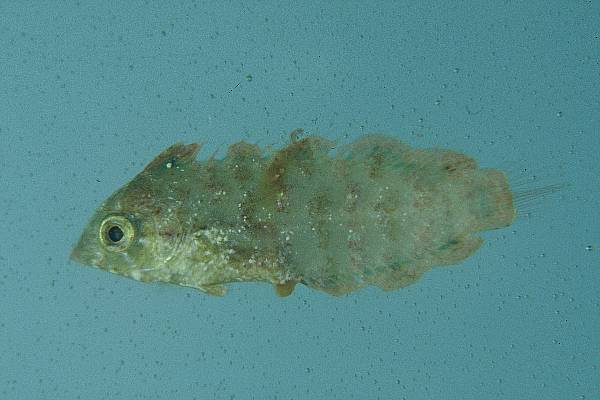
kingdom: Animalia
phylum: Chordata
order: Perciformes
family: Labridae
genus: Macropharyngodon
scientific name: Macropharyngodon
